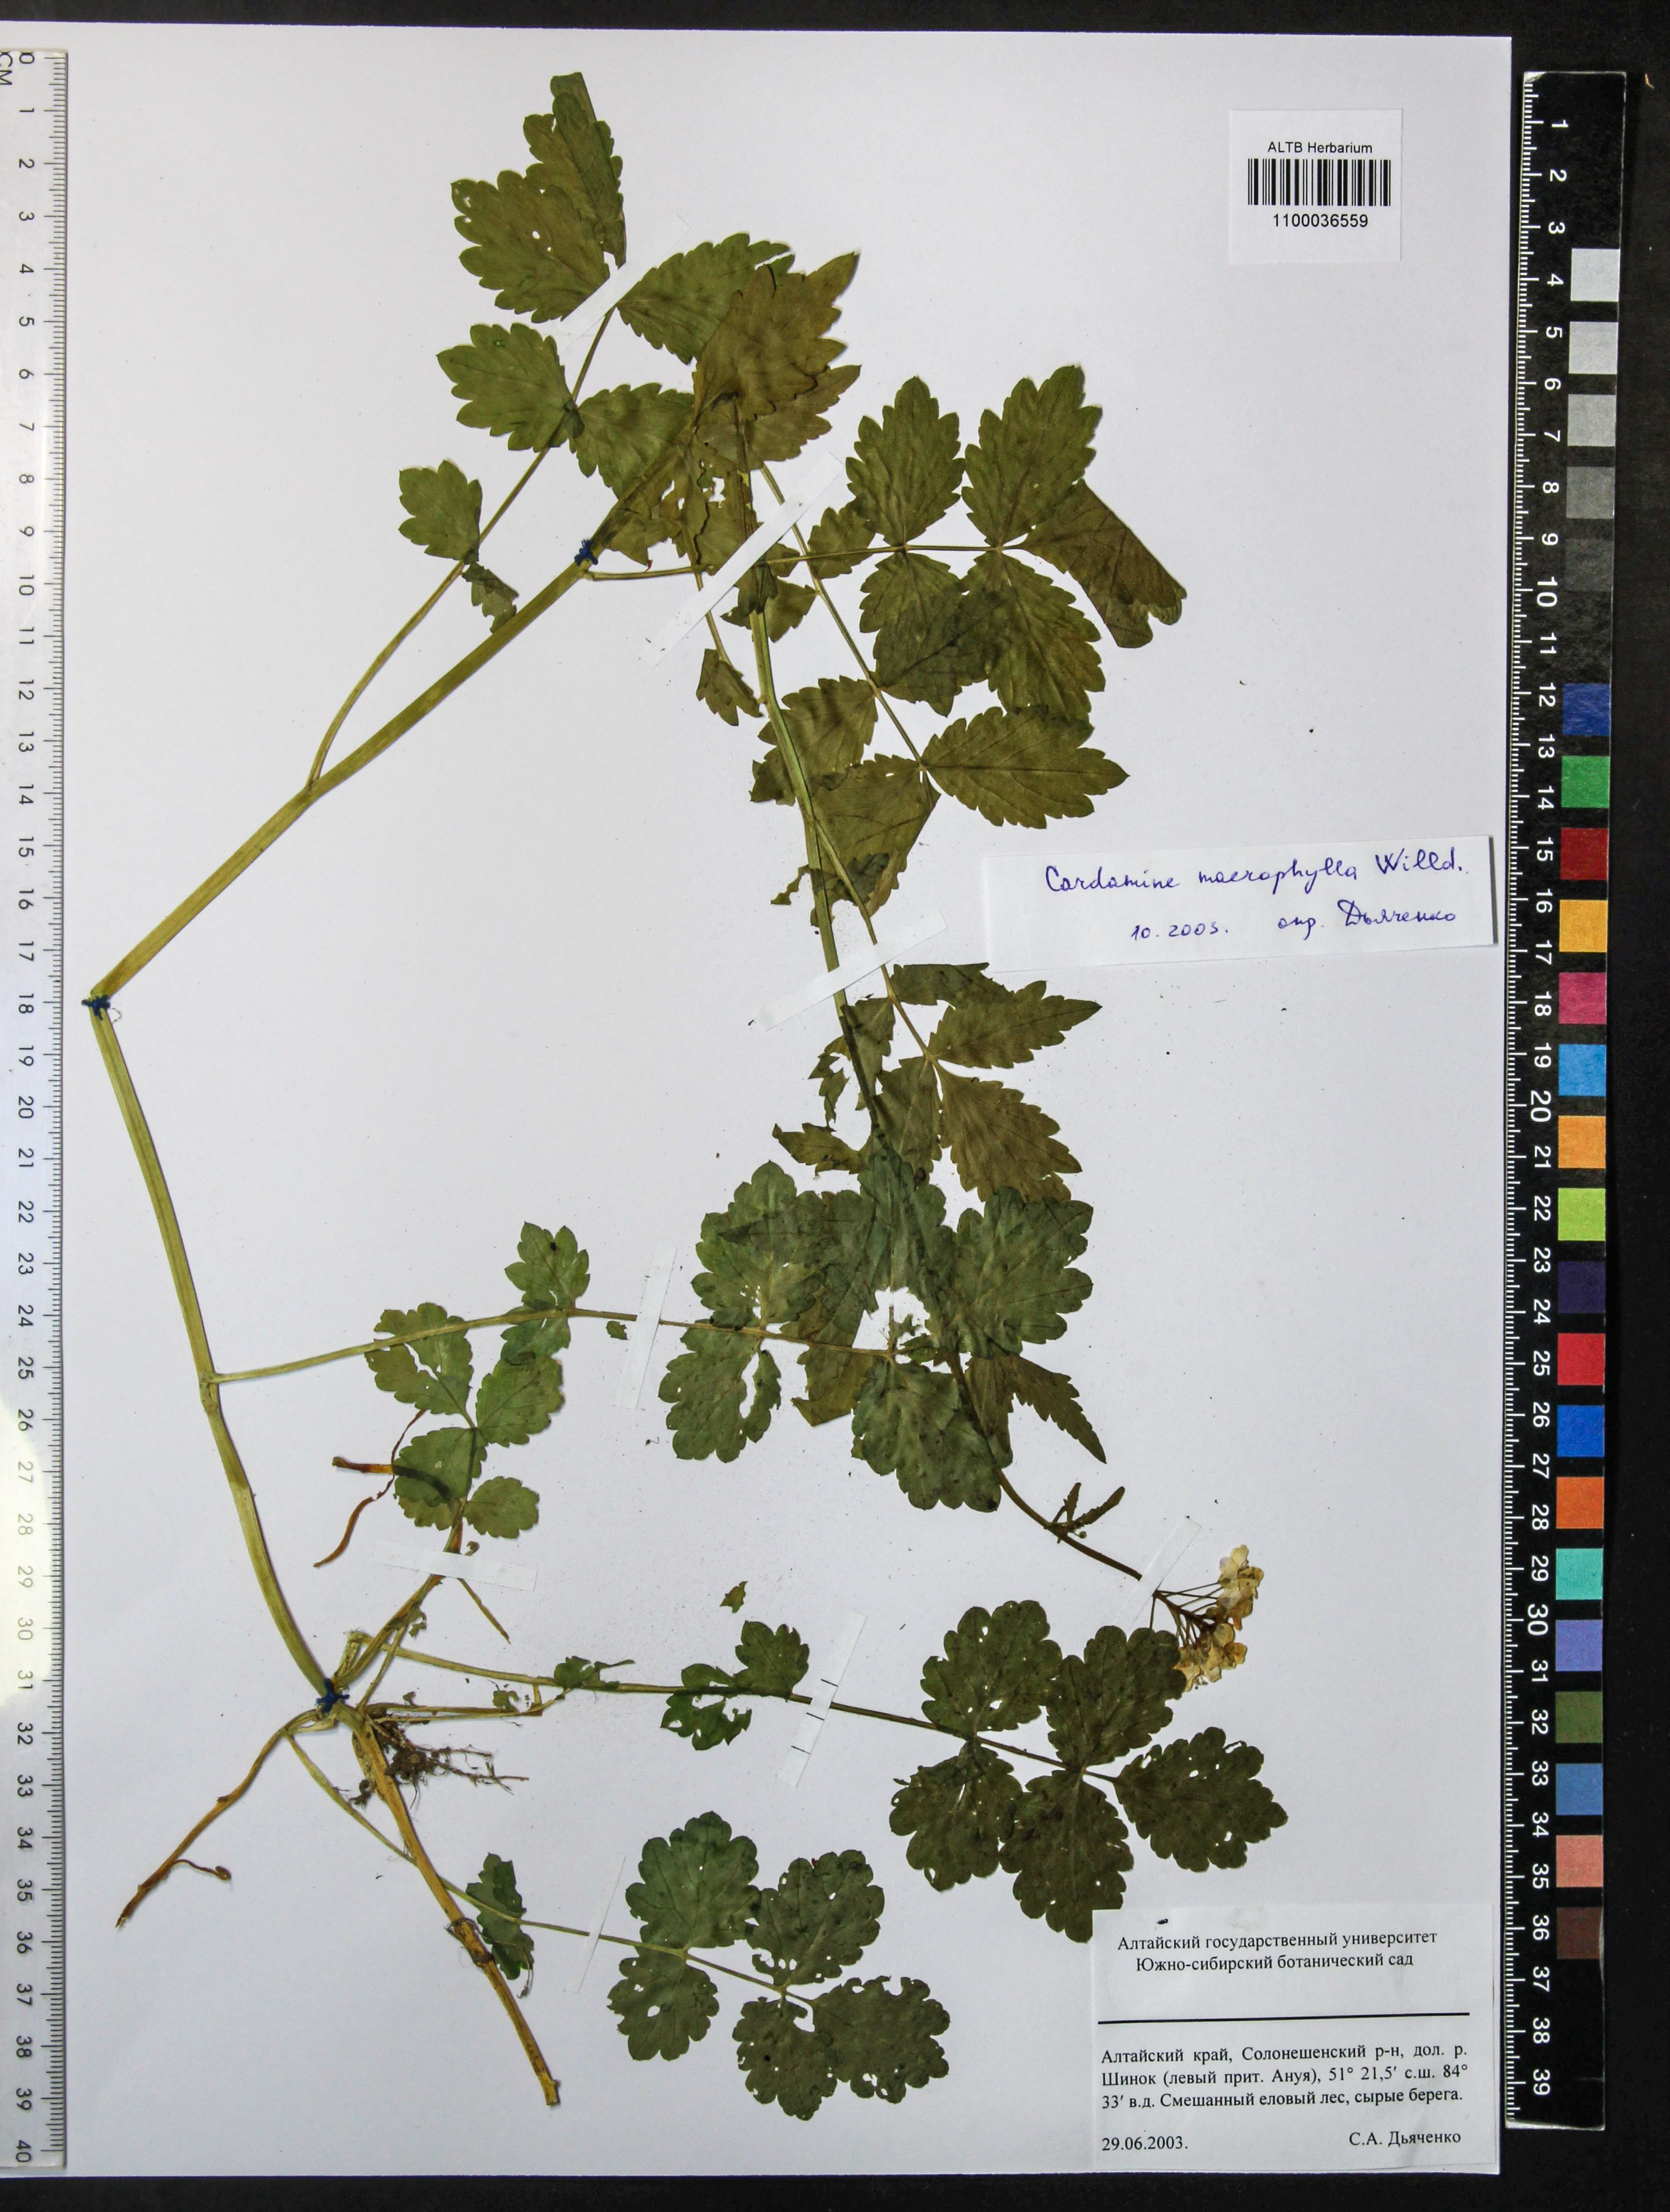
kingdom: Plantae
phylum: Tracheophyta
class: Magnoliopsida
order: Brassicales
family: Brassicaceae
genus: Cardamine
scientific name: Cardamine macrophylla
